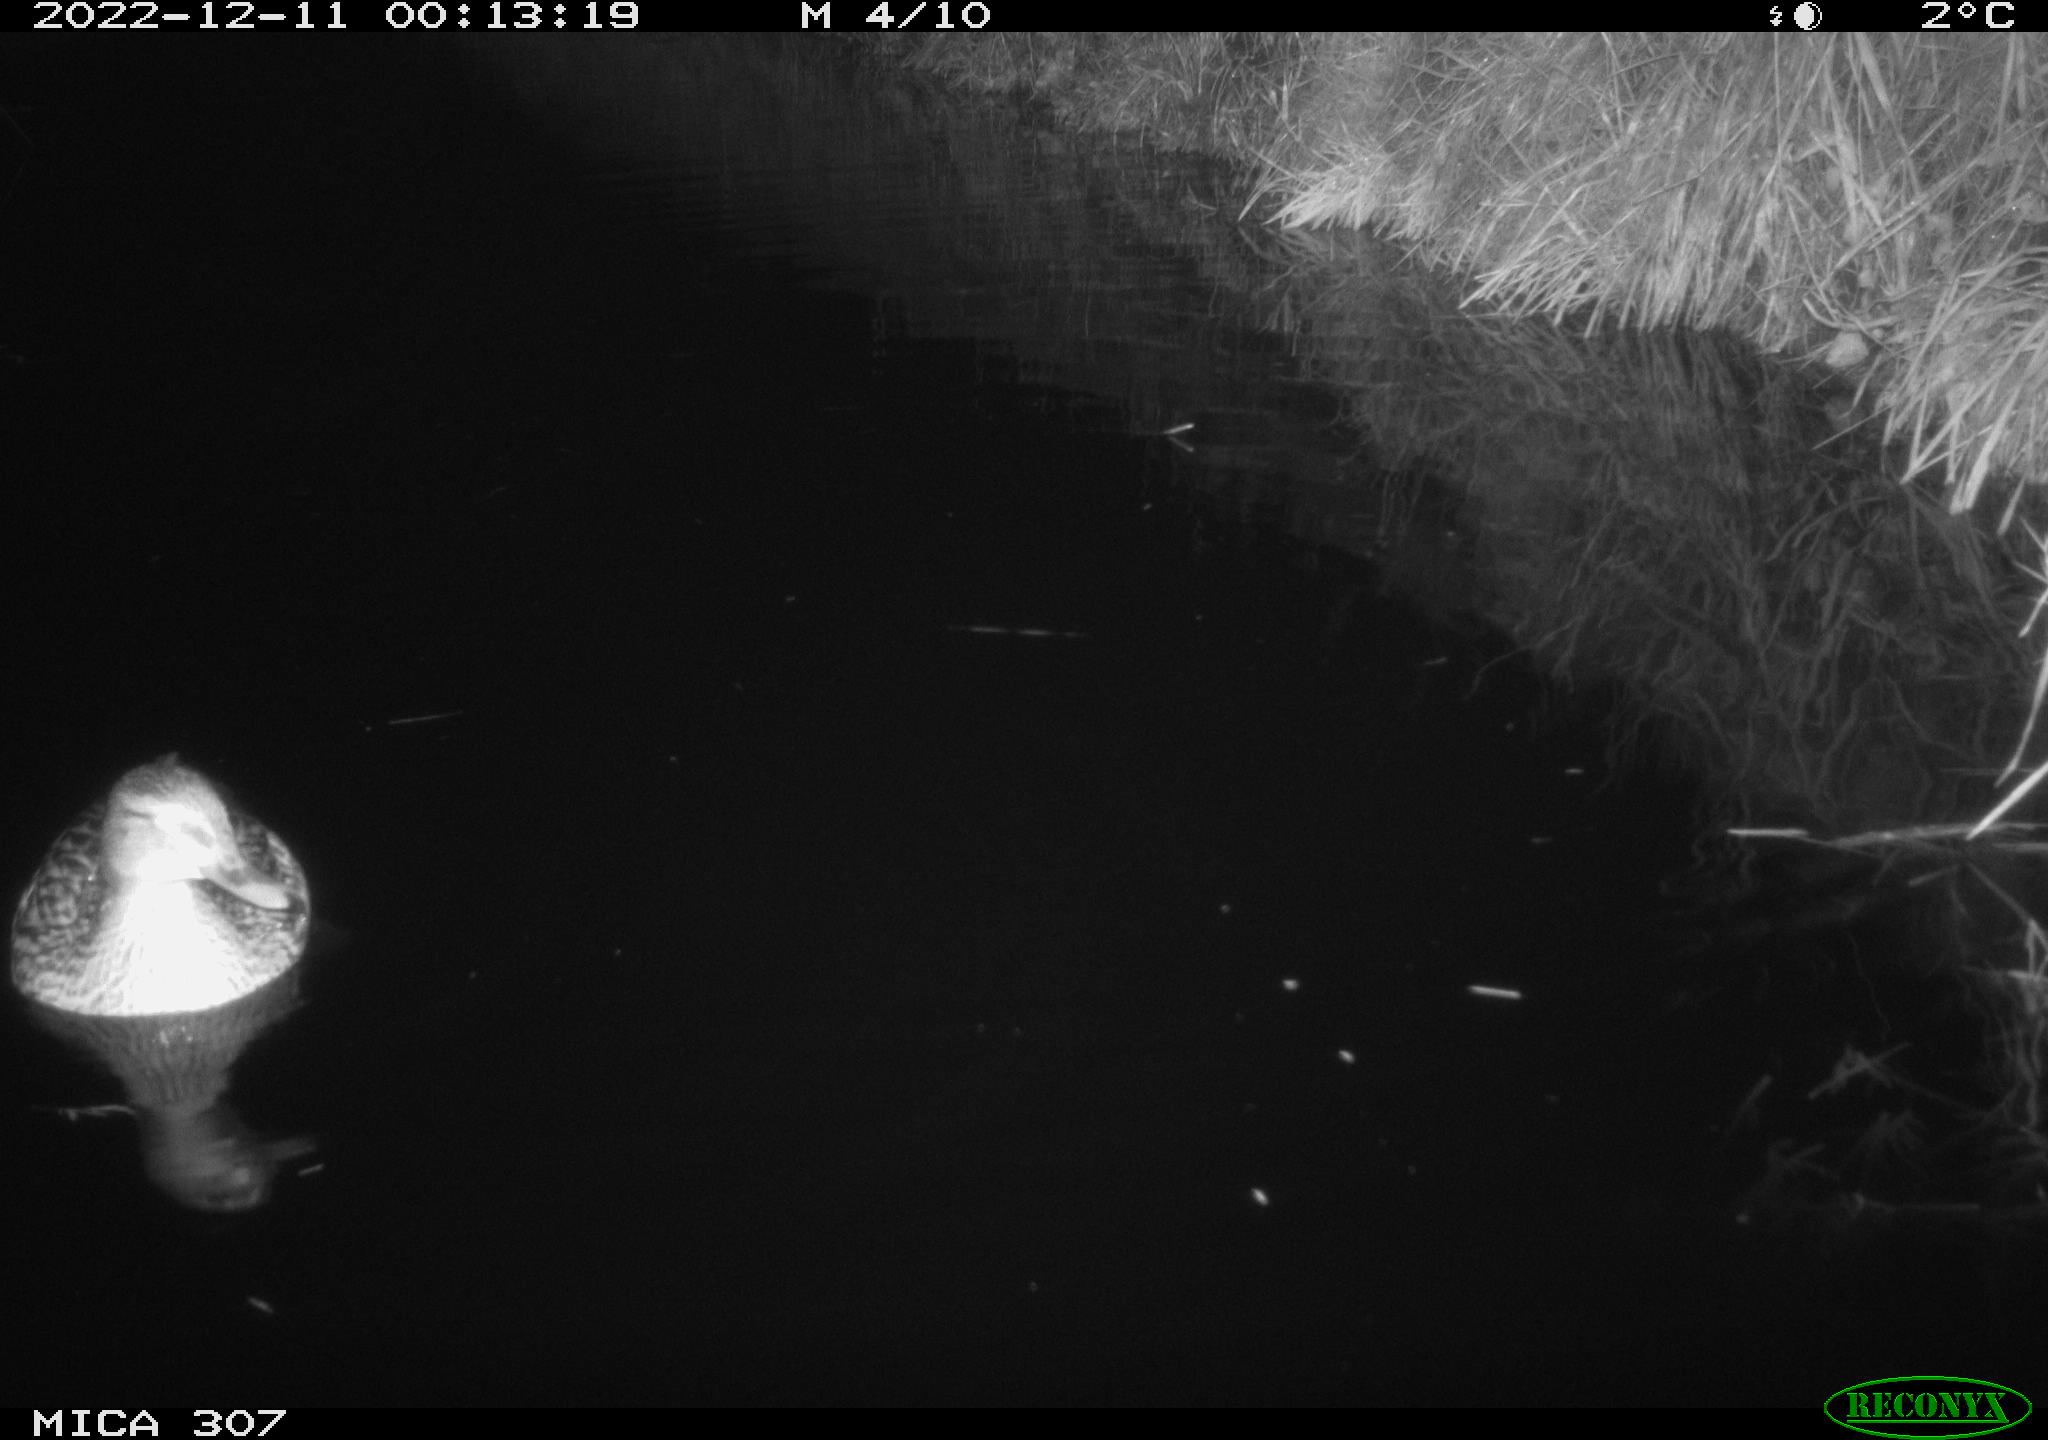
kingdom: Animalia
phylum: Chordata
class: Aves
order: Anseriformes
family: Anatidae
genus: Anas
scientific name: Anas
